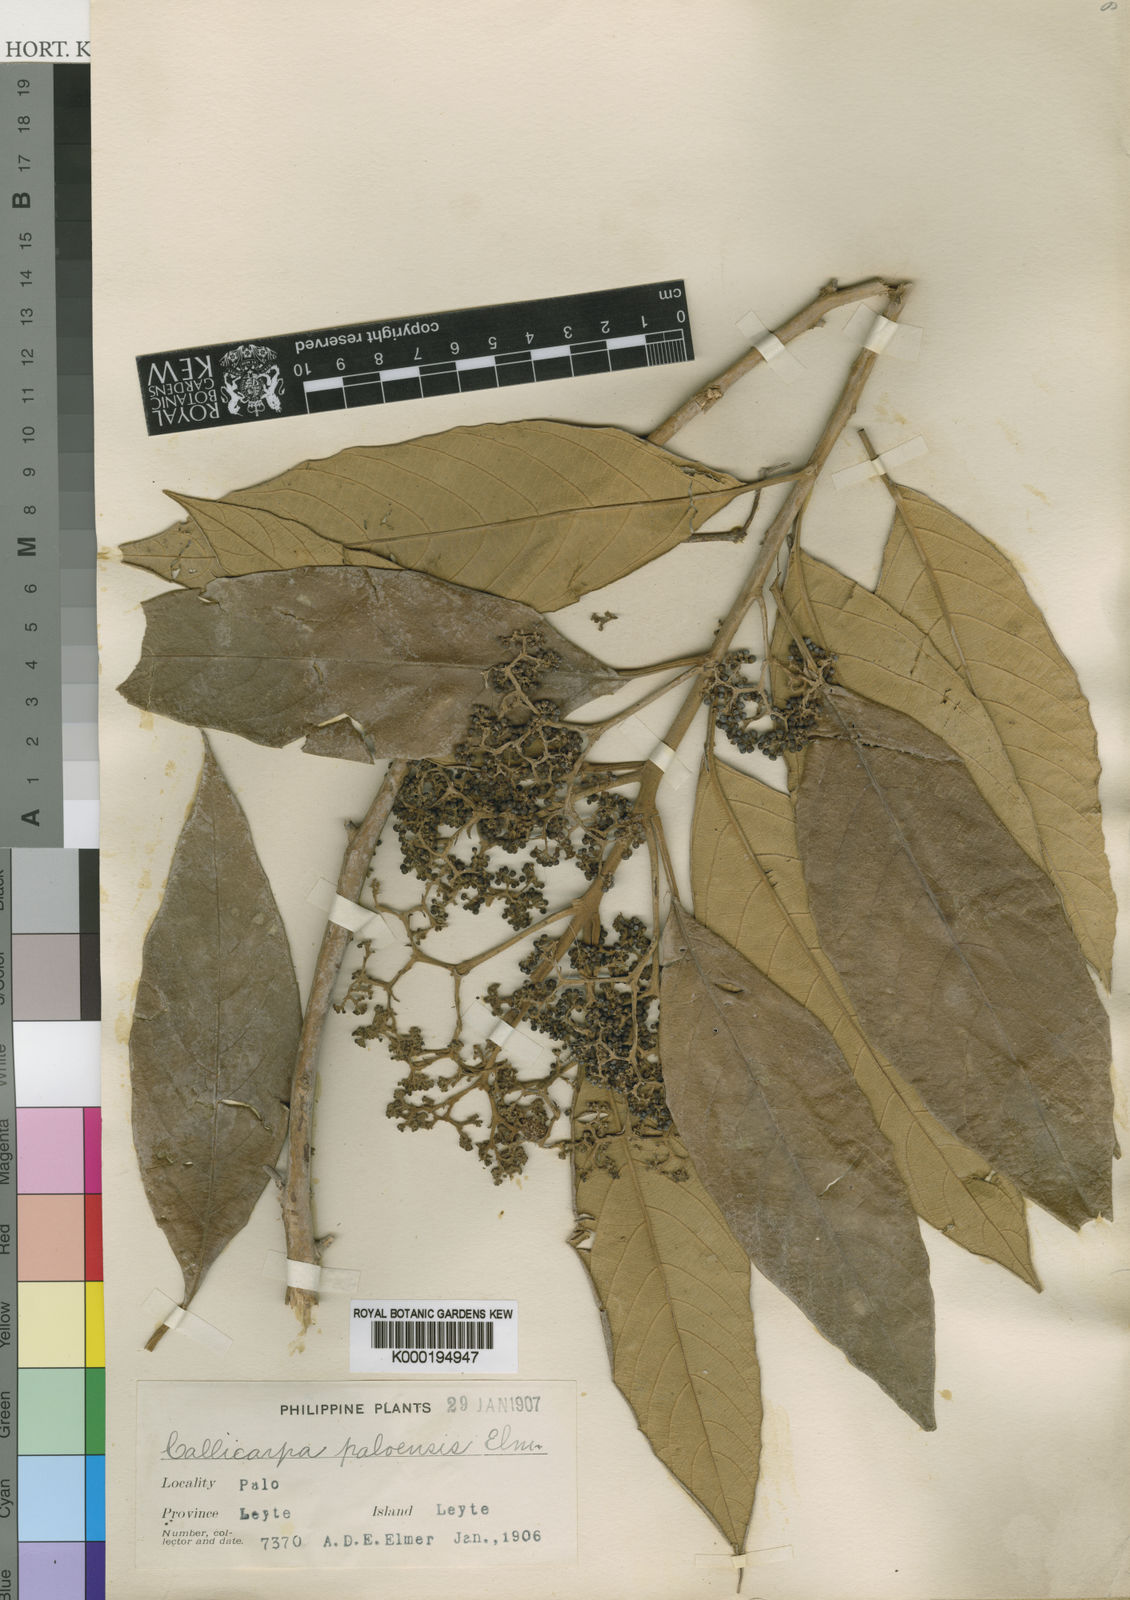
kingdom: Plantae
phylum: Tracheophyta
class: Magnoliopsida
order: Lamiales
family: Lamiaceae
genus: Callicarpa
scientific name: Callicarpa pentandra
